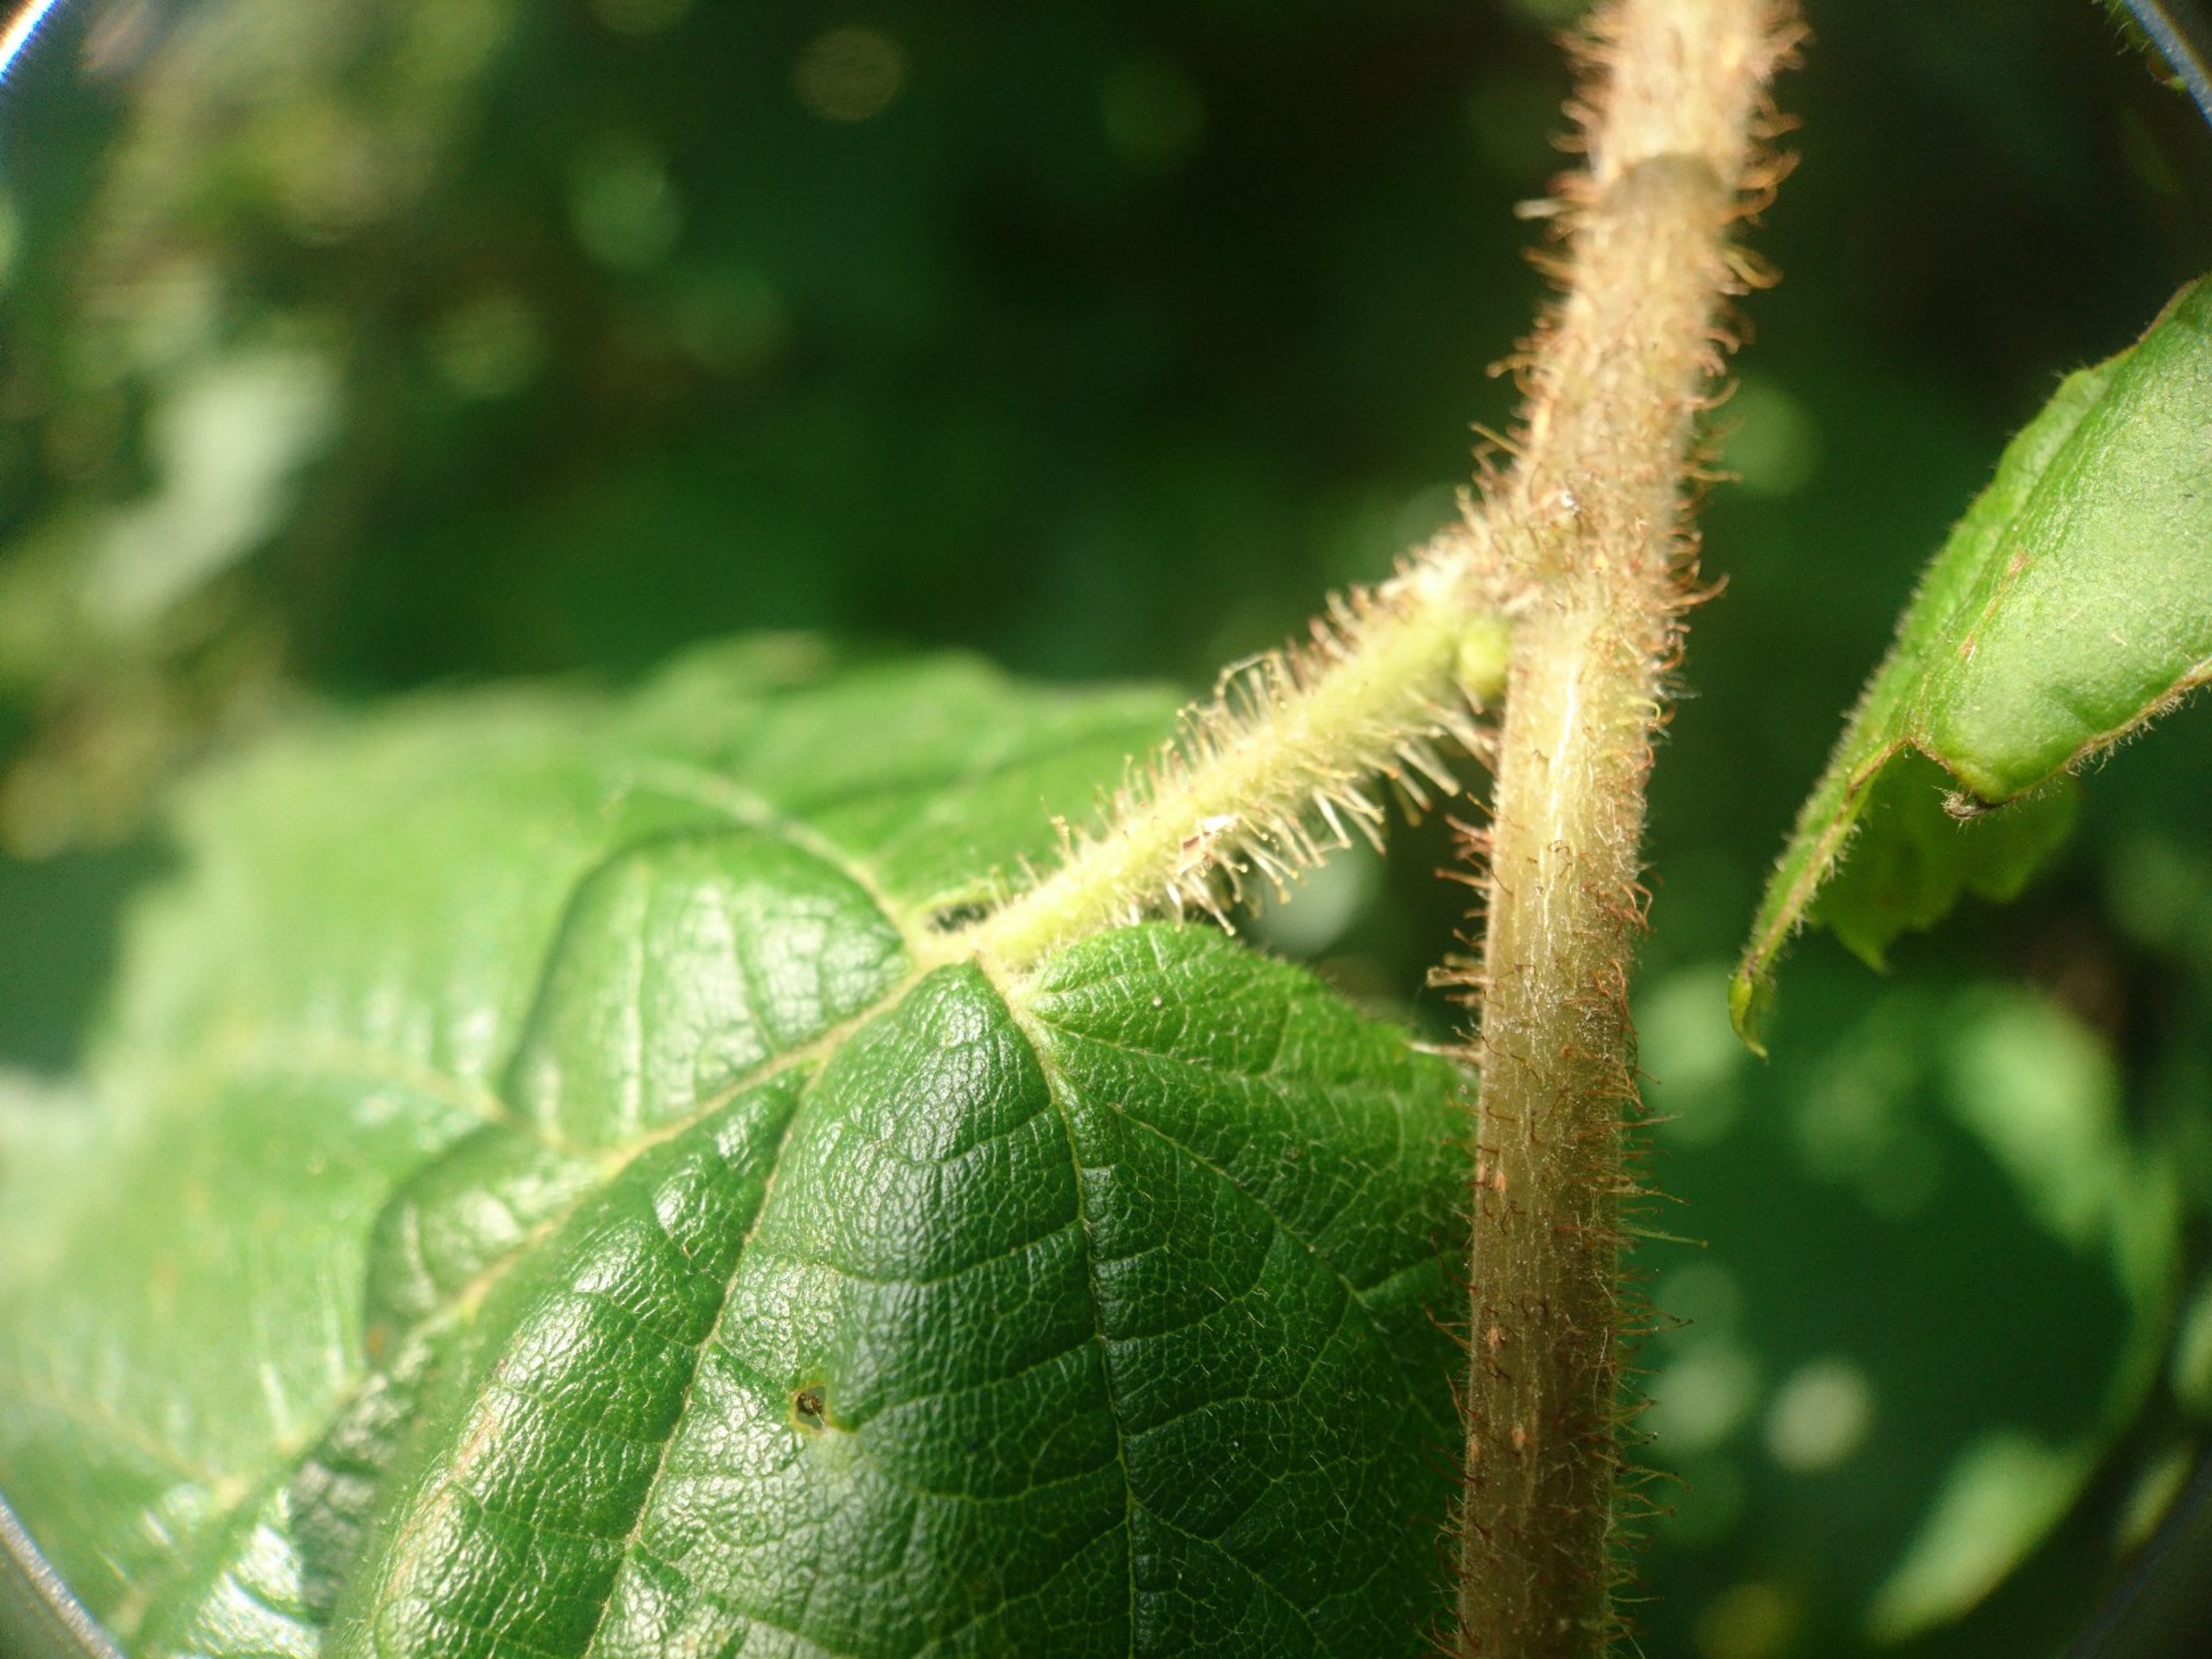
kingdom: Plantae
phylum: Tracheophyta
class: Magnoliopsida
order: Fagales
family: Betulaceae
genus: Corylus
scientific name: Corylus avellana
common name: Hassel
